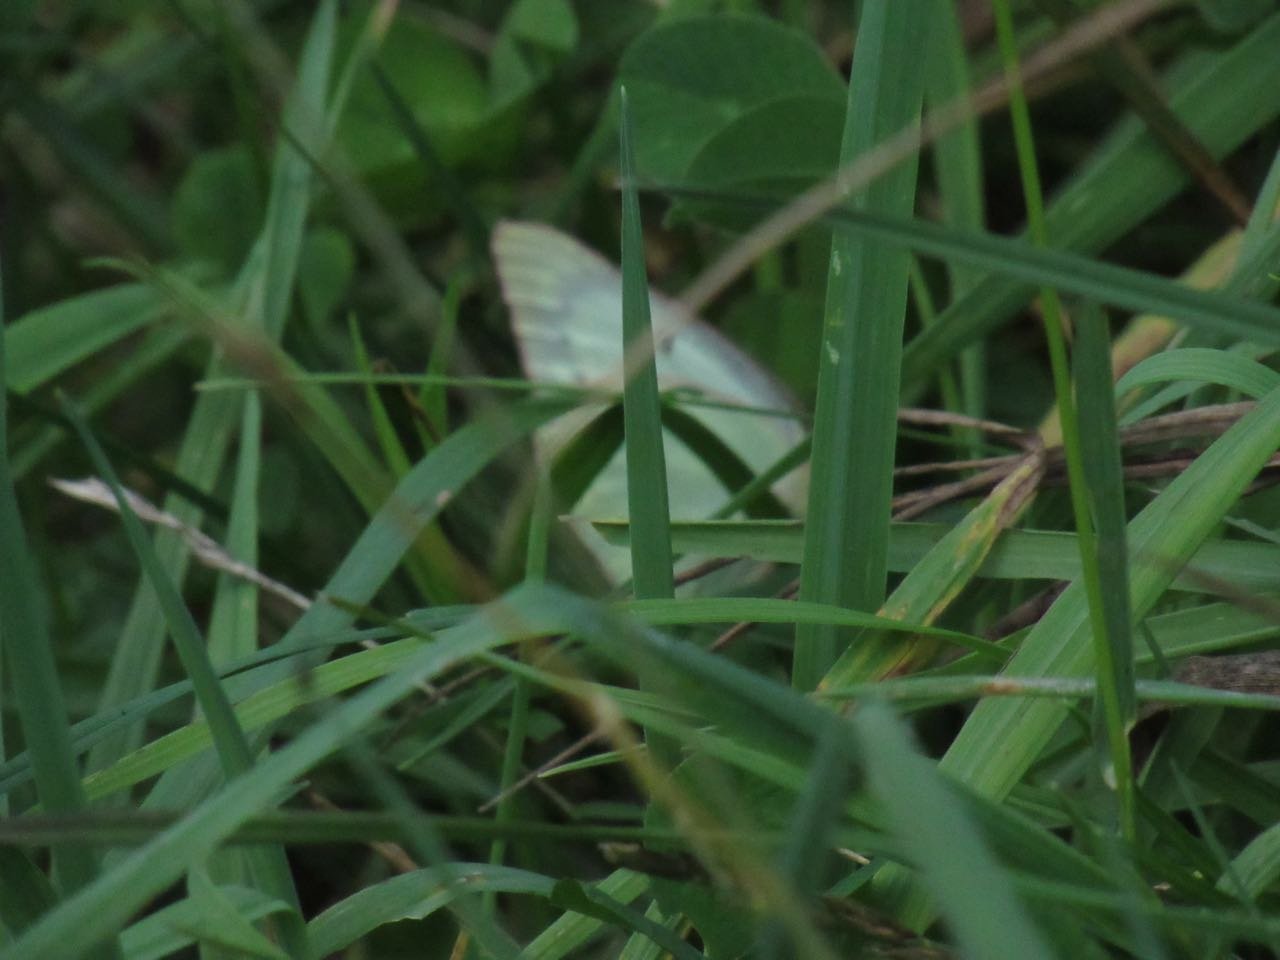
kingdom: Animalia
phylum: Arthropoda
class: Insecta
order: Lepidoptera
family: Pieridae
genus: Colias
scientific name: Colias philodice
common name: Clouded Sulphur
